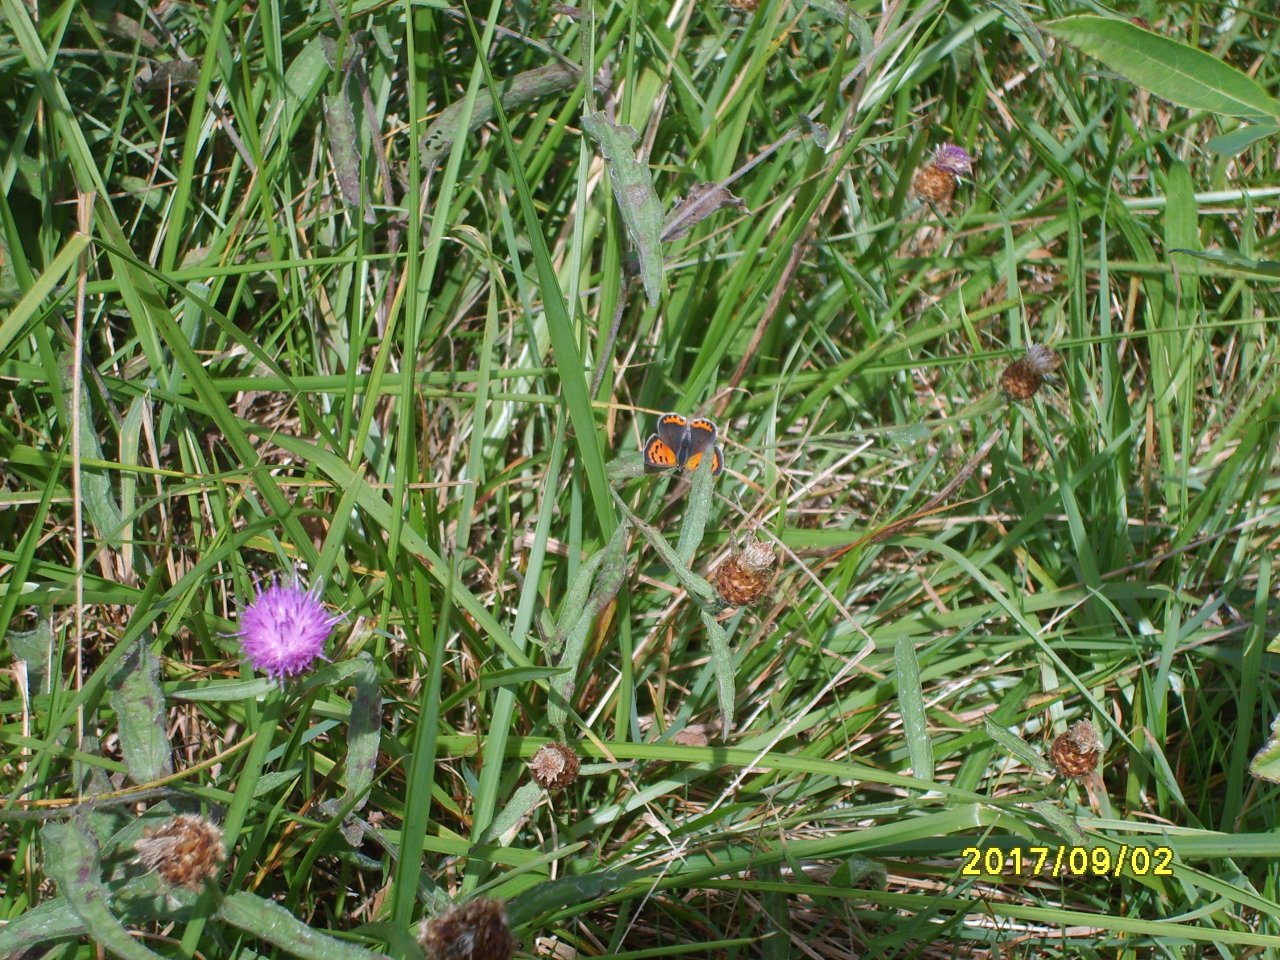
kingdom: Animalia
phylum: Arthropoda
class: Insecta
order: Lepidoptera
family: Lycaenidae
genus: Lycaena
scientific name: Lycaena phlaeas
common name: American Copper
